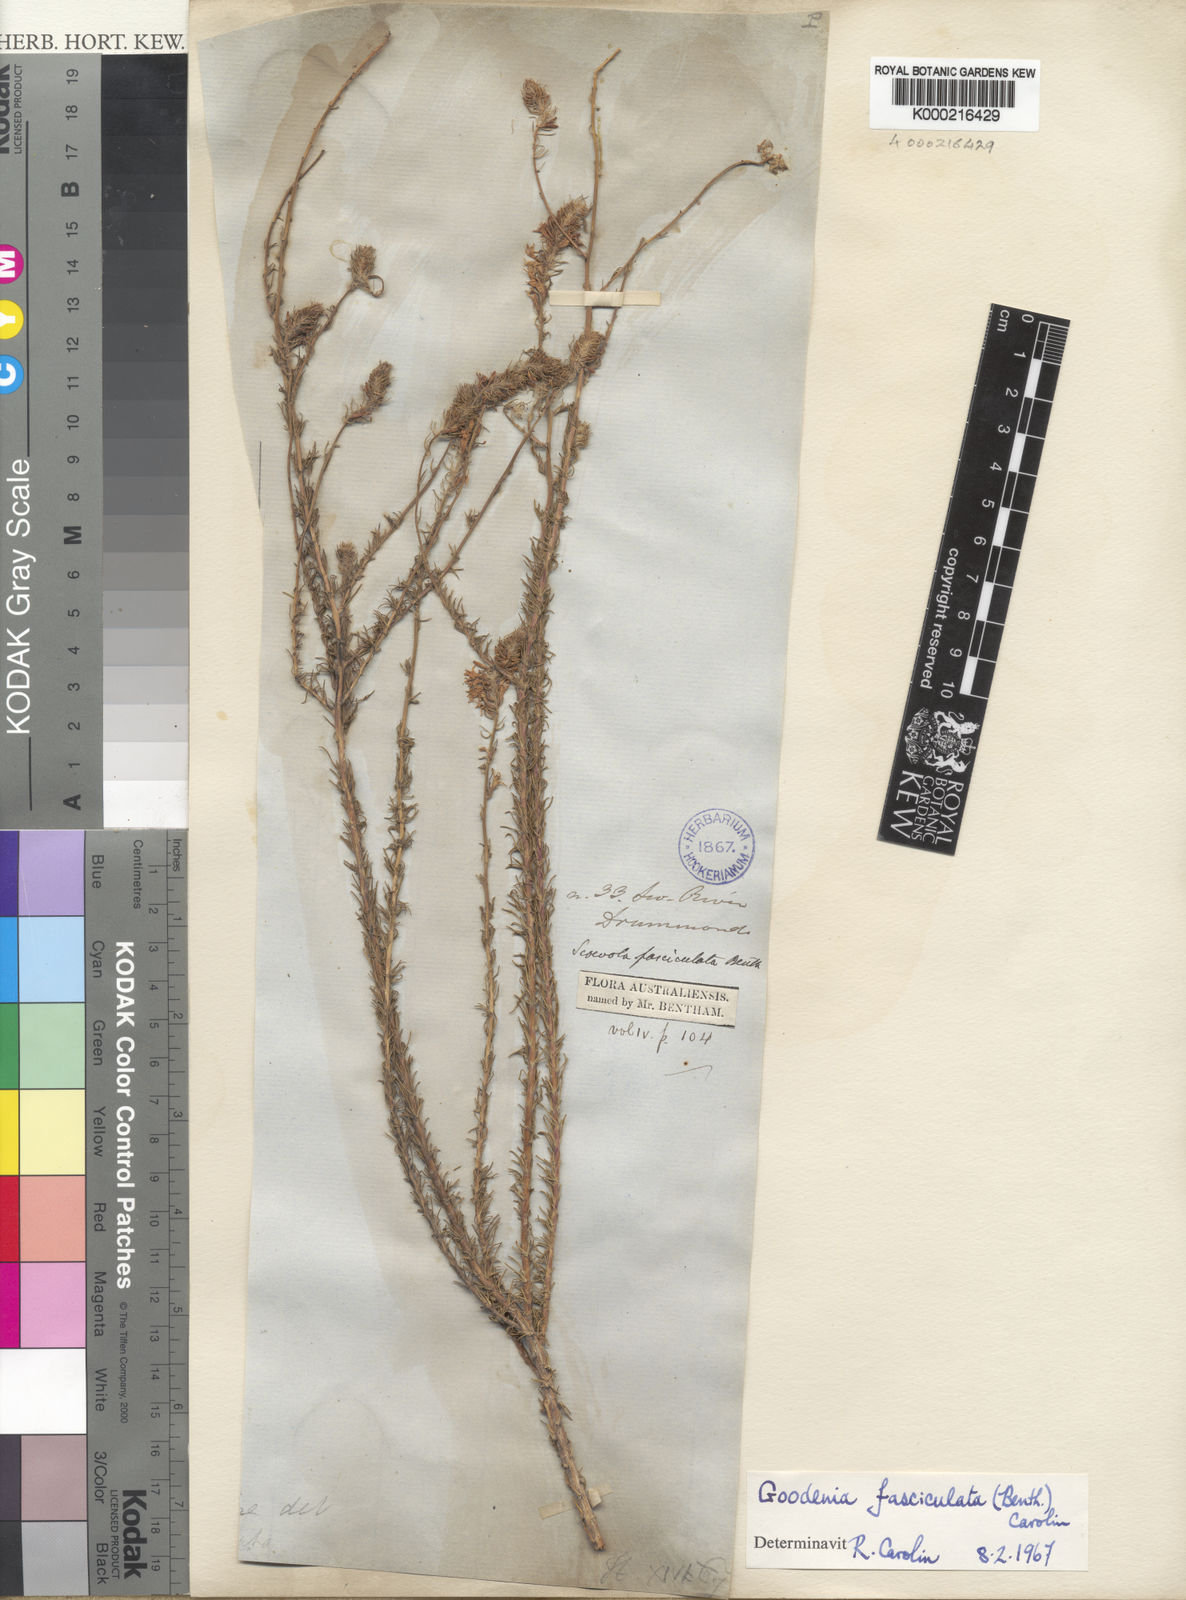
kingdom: Plantae
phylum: Tracheophyta
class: Magnoliopsida
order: Asterales
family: Goodeniaceae
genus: Goodenia
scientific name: Goodenia fasciculata
